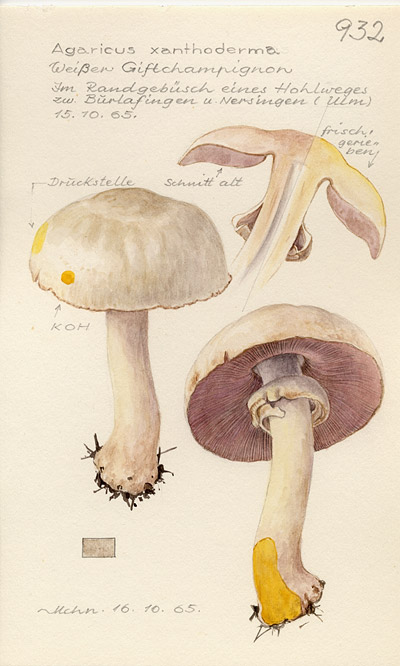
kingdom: Fungi
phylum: Basidiomycota
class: Agaricomycetes
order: Agaricales
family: Agaricaceae
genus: Agaricus
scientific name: Agaricus xanthodermus
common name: Yellow stainer
